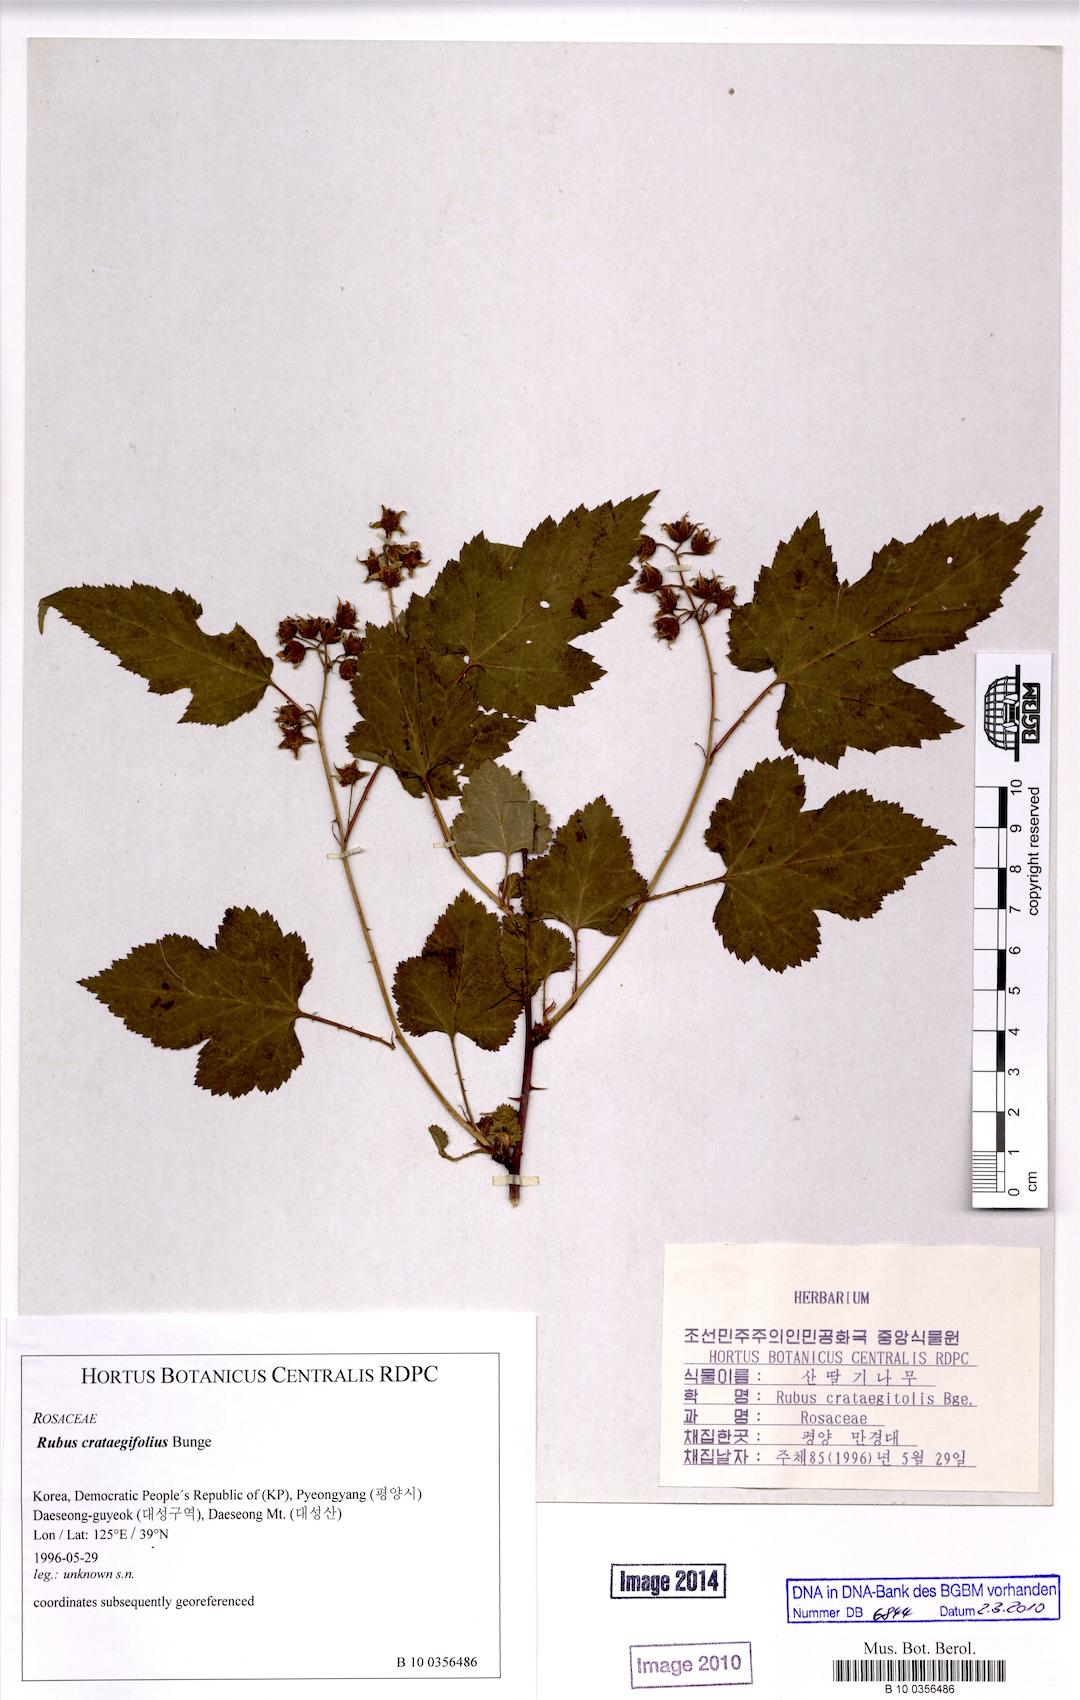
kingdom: Plantae
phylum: Tracheophyta
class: Magnoliopsida
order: Rosales
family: Rosaceae
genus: Rubus
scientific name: Rubus crataegifolius
